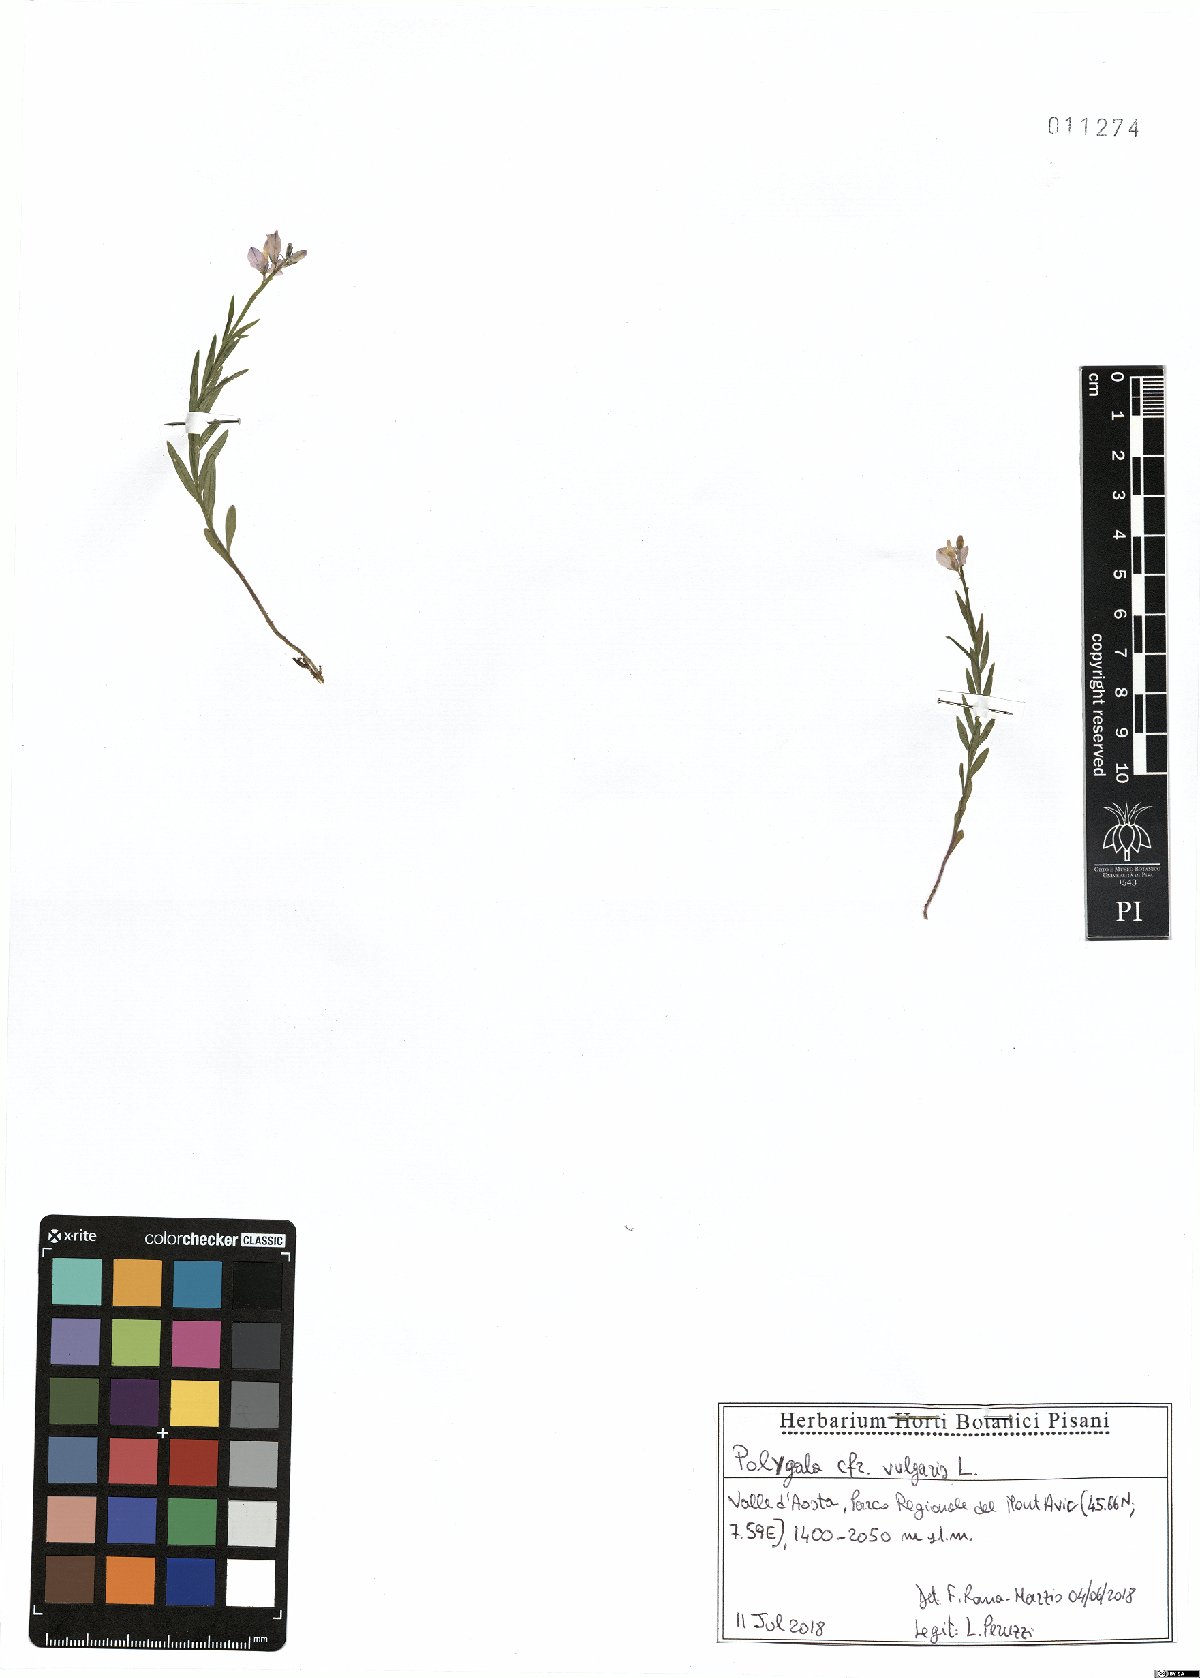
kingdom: Plantae
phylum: Tracheophyta
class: Magnoliopsida
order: Fabales
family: Polygalaceae
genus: Polygala
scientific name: Polygala vulgaris
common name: Common milkwort
